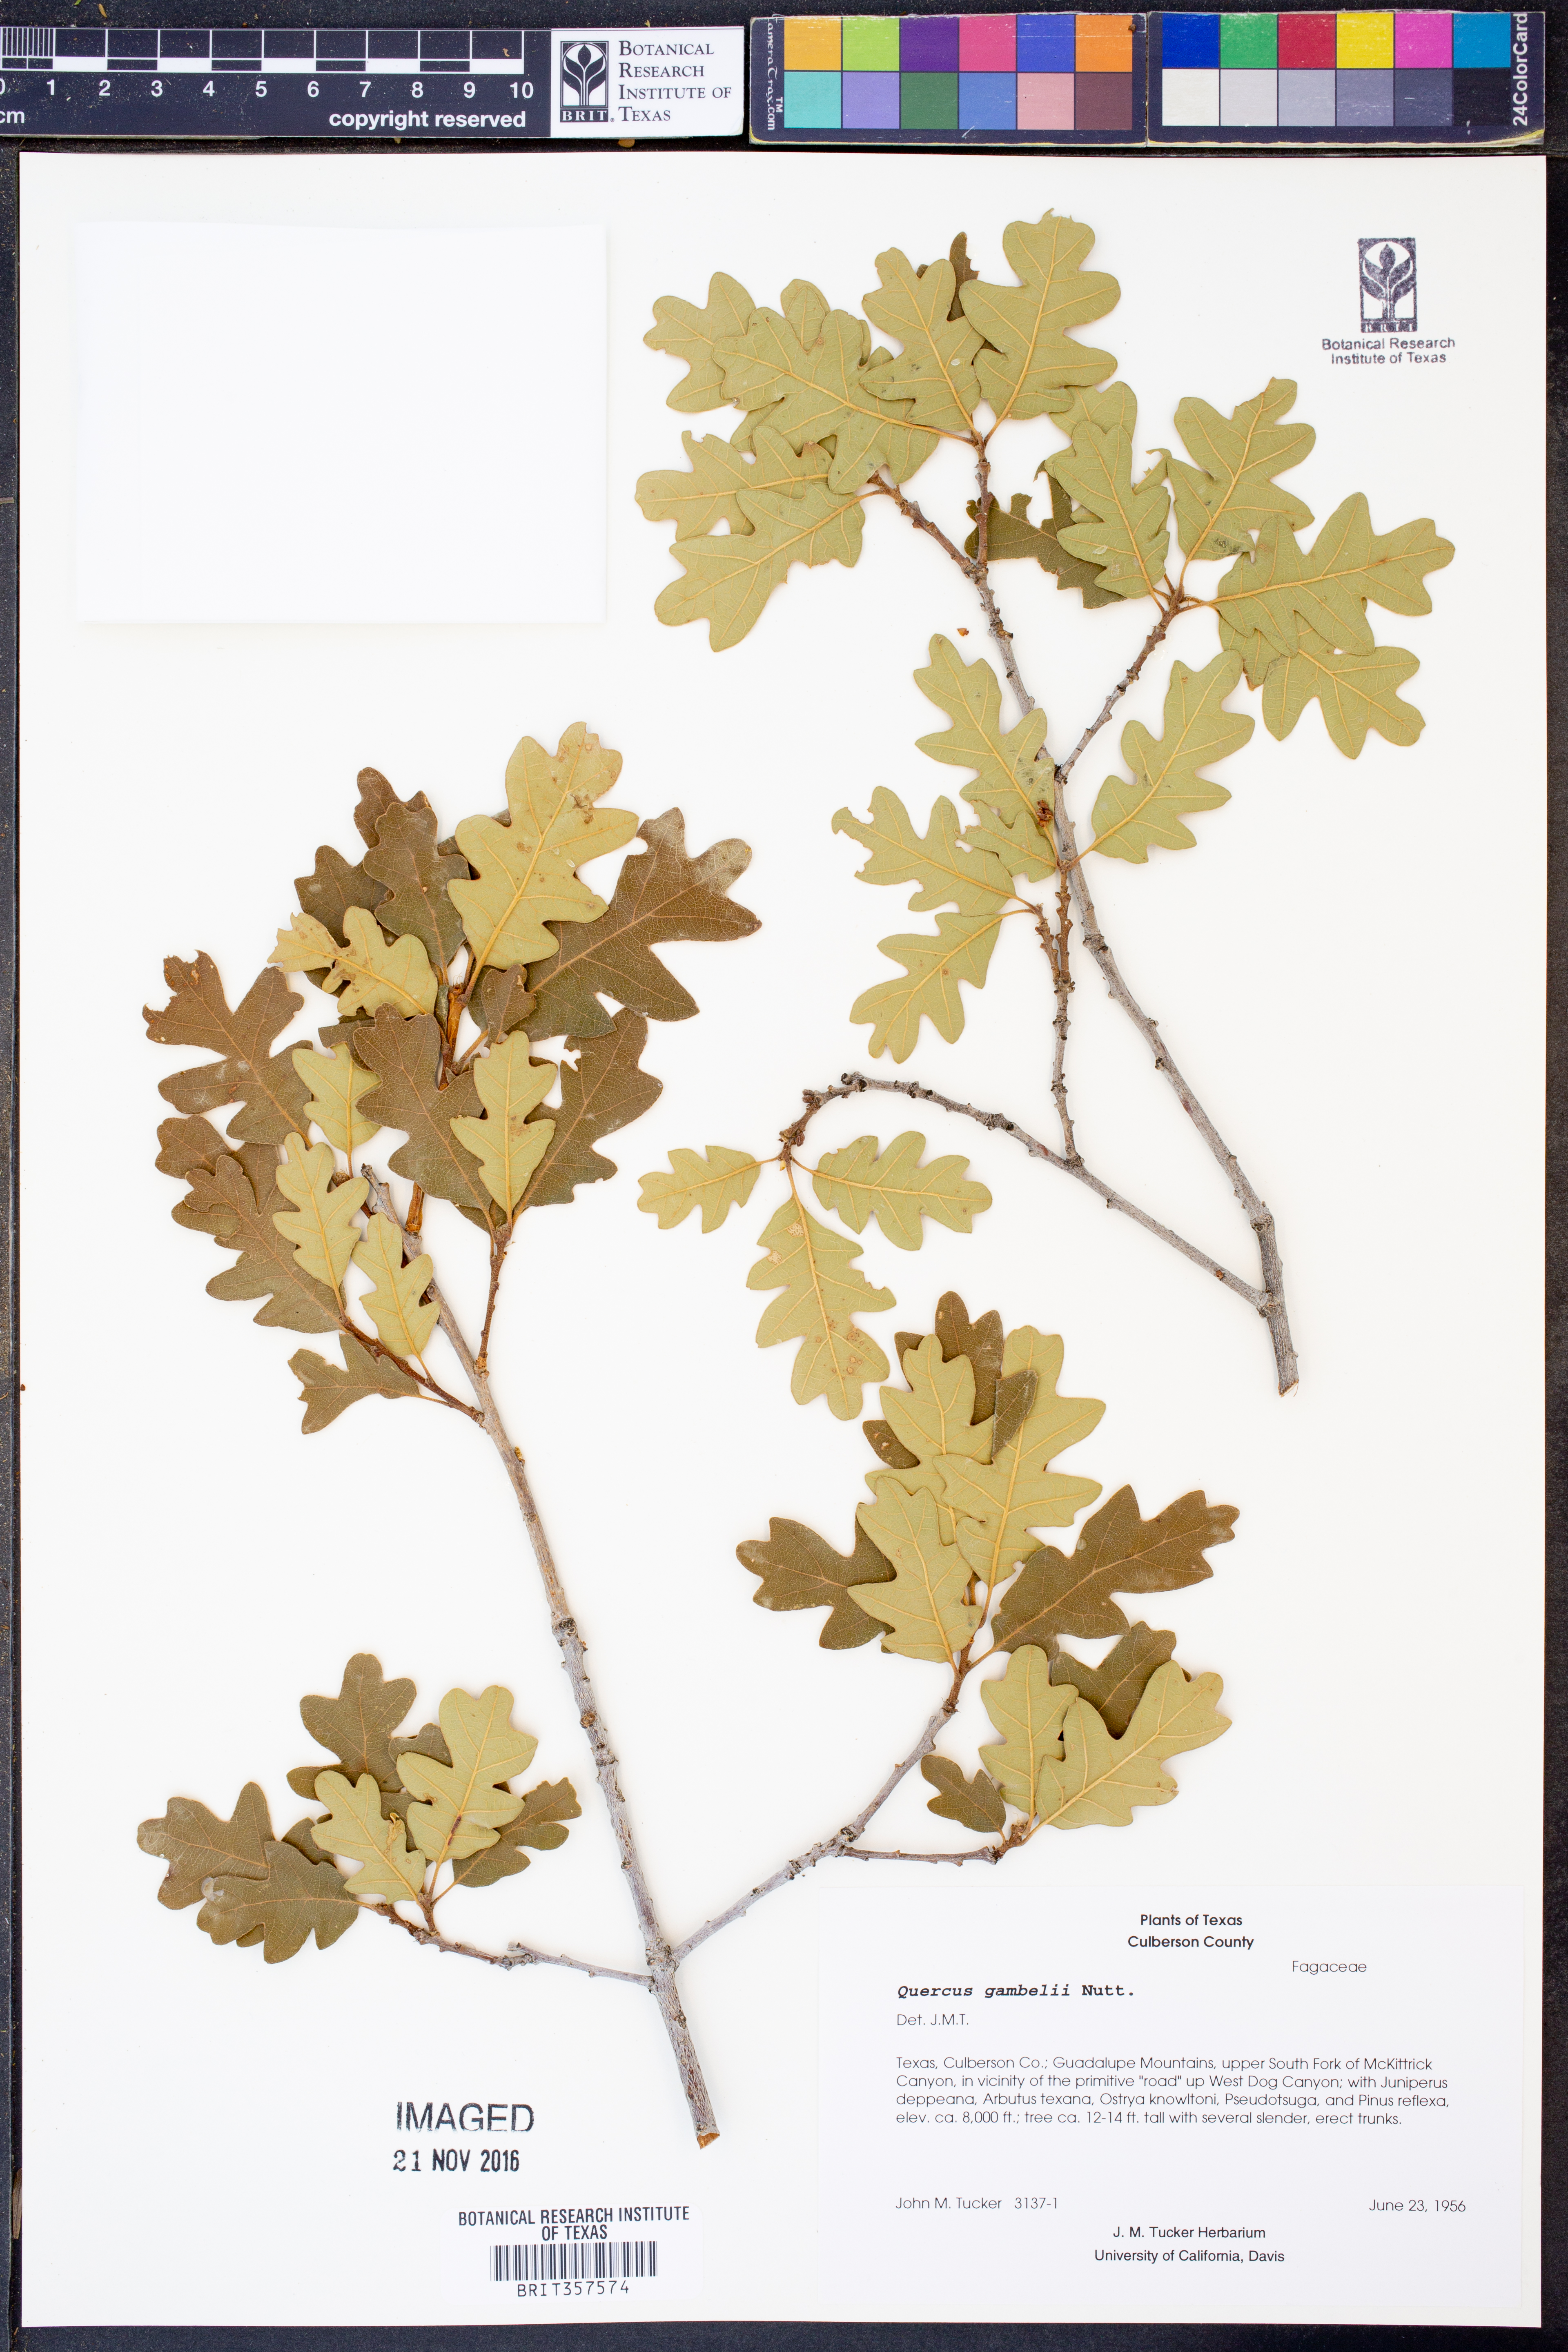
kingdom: Plantae
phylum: Tracheophyta
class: Magnoliopsida
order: Fagales
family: Fagaceae
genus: Quercus
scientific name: Quercus gambelii
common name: Gambel oak
